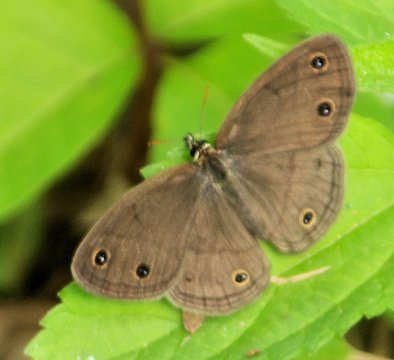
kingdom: Animalia
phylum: Arthropoda
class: Insecta
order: Lepidoptera
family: Nymphalidae
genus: Euptychia
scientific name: Euptychia cymela
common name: Little Wood Satyr
